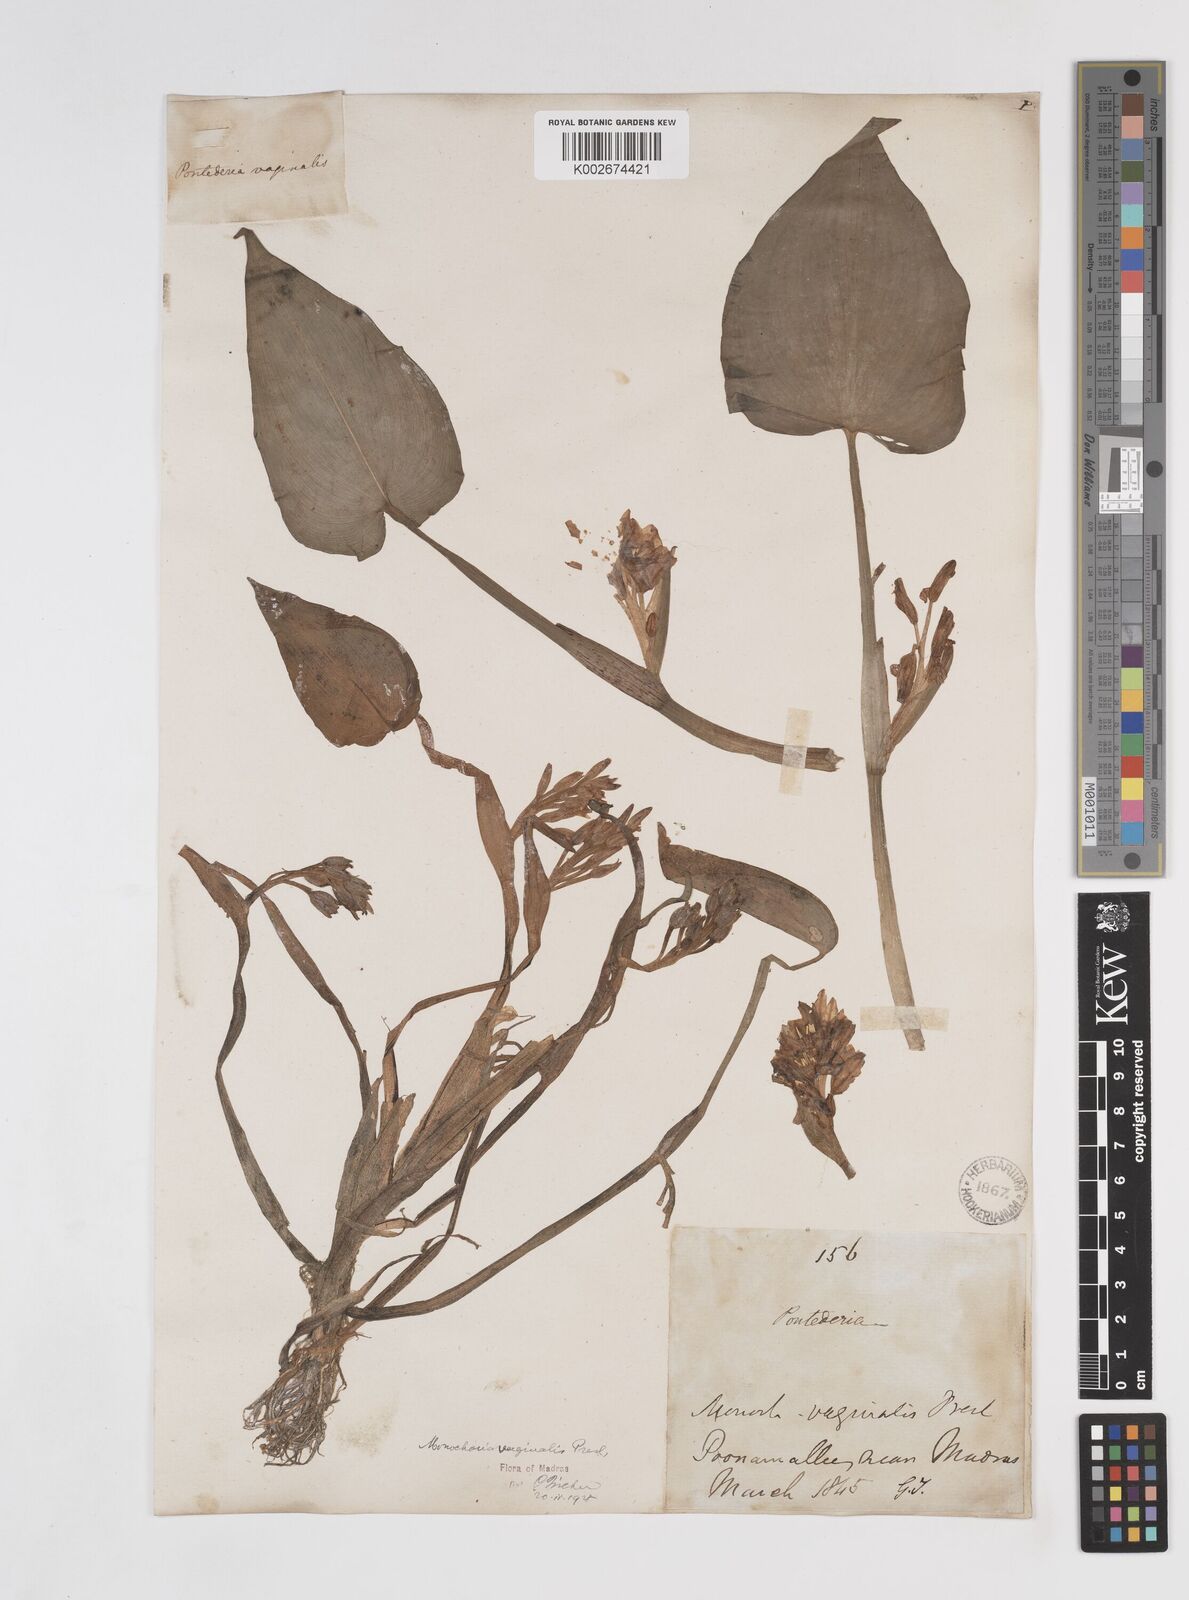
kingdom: Plantae
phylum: Tracheophyta
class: Liliopsida
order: Commelinales
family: Pontederiaceae
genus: Pontederia
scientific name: Pontederia vaginalis
